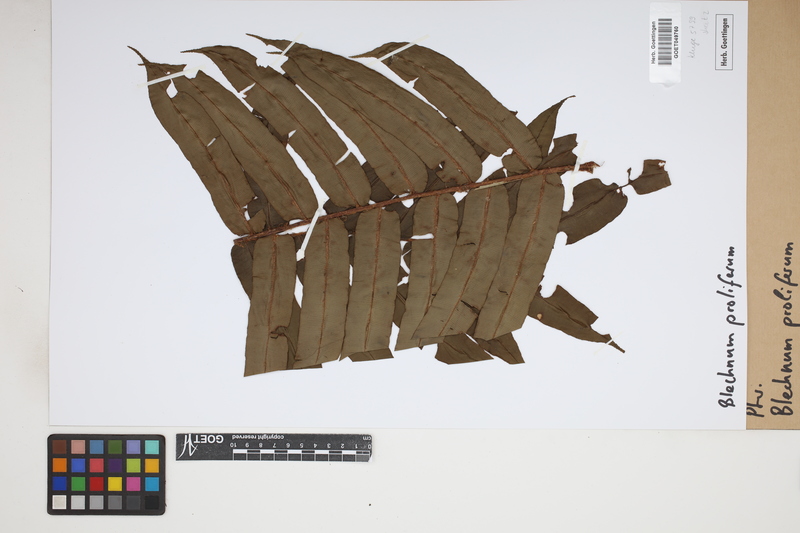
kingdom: Plantae
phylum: Tracheophyta
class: Polypodiopsida
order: Polypodiales
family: Blechnaceae
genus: Parablechnum
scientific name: Parablechnum proliferum
